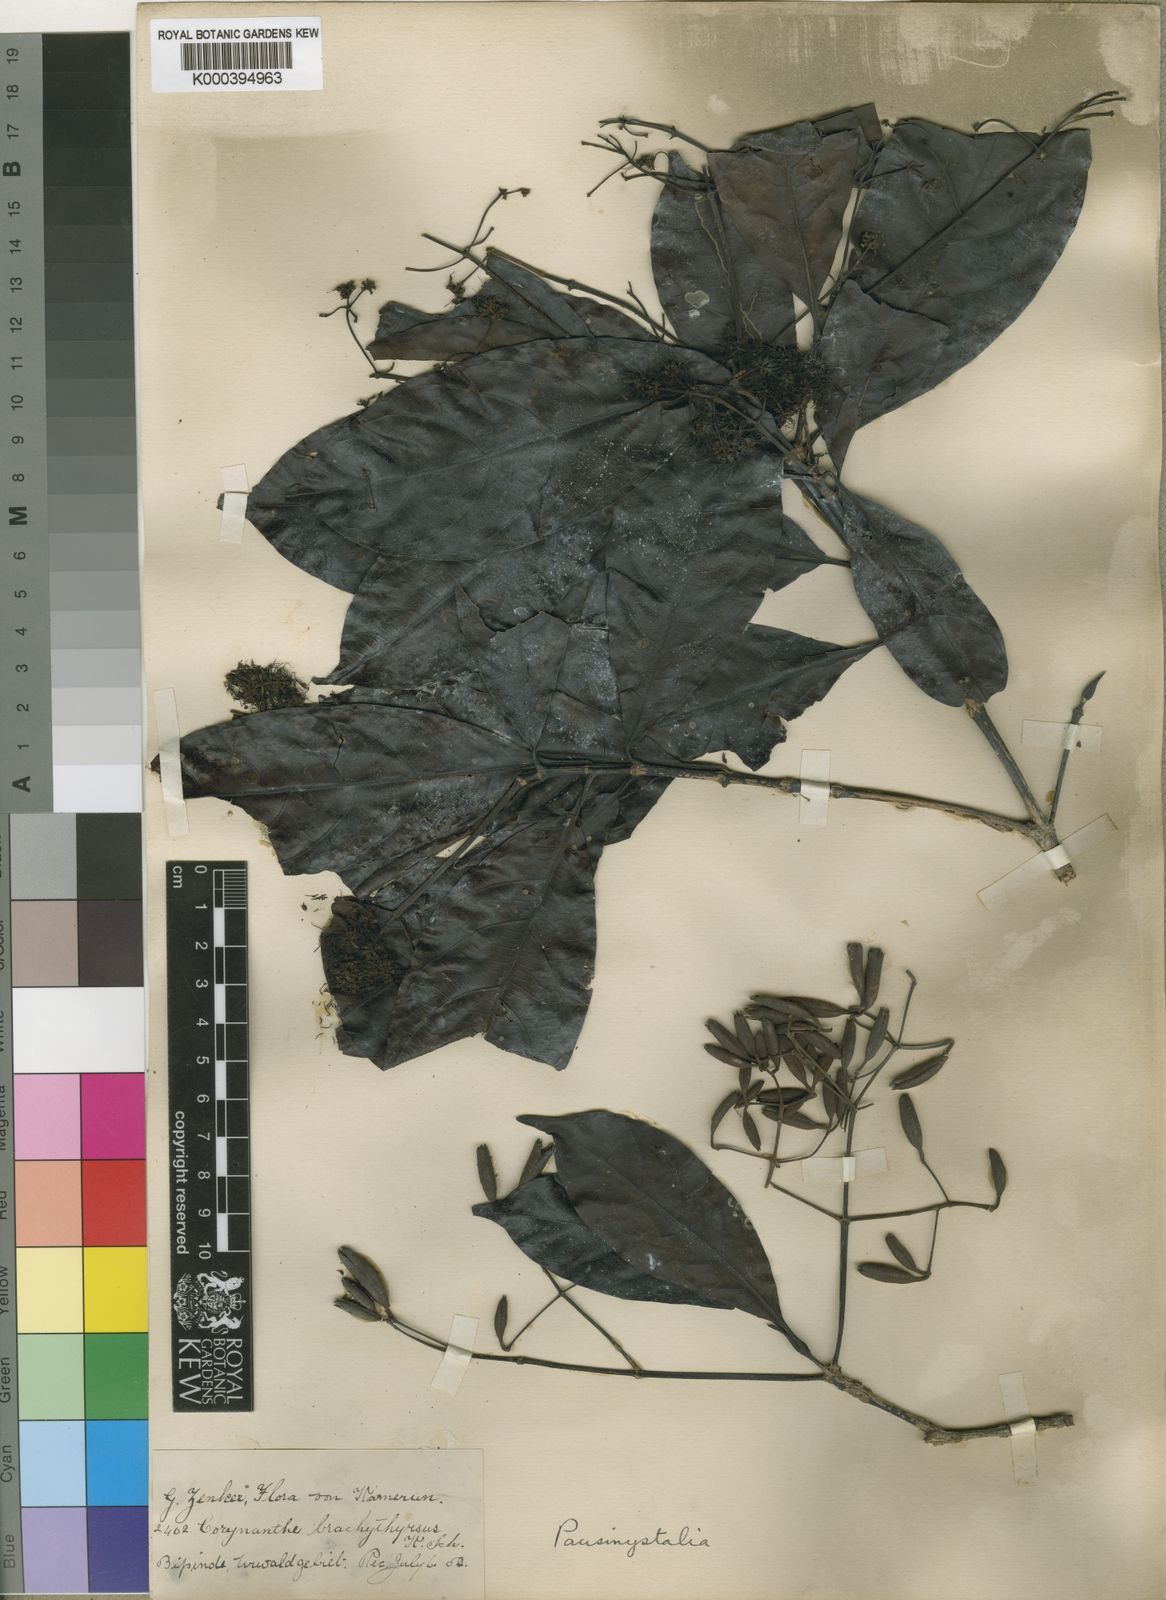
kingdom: Plantae
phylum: Tracheophyta
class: Magnoliopsida
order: Gentianales
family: Rubiaceae
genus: Pausinystalia
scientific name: Pausinystalia
